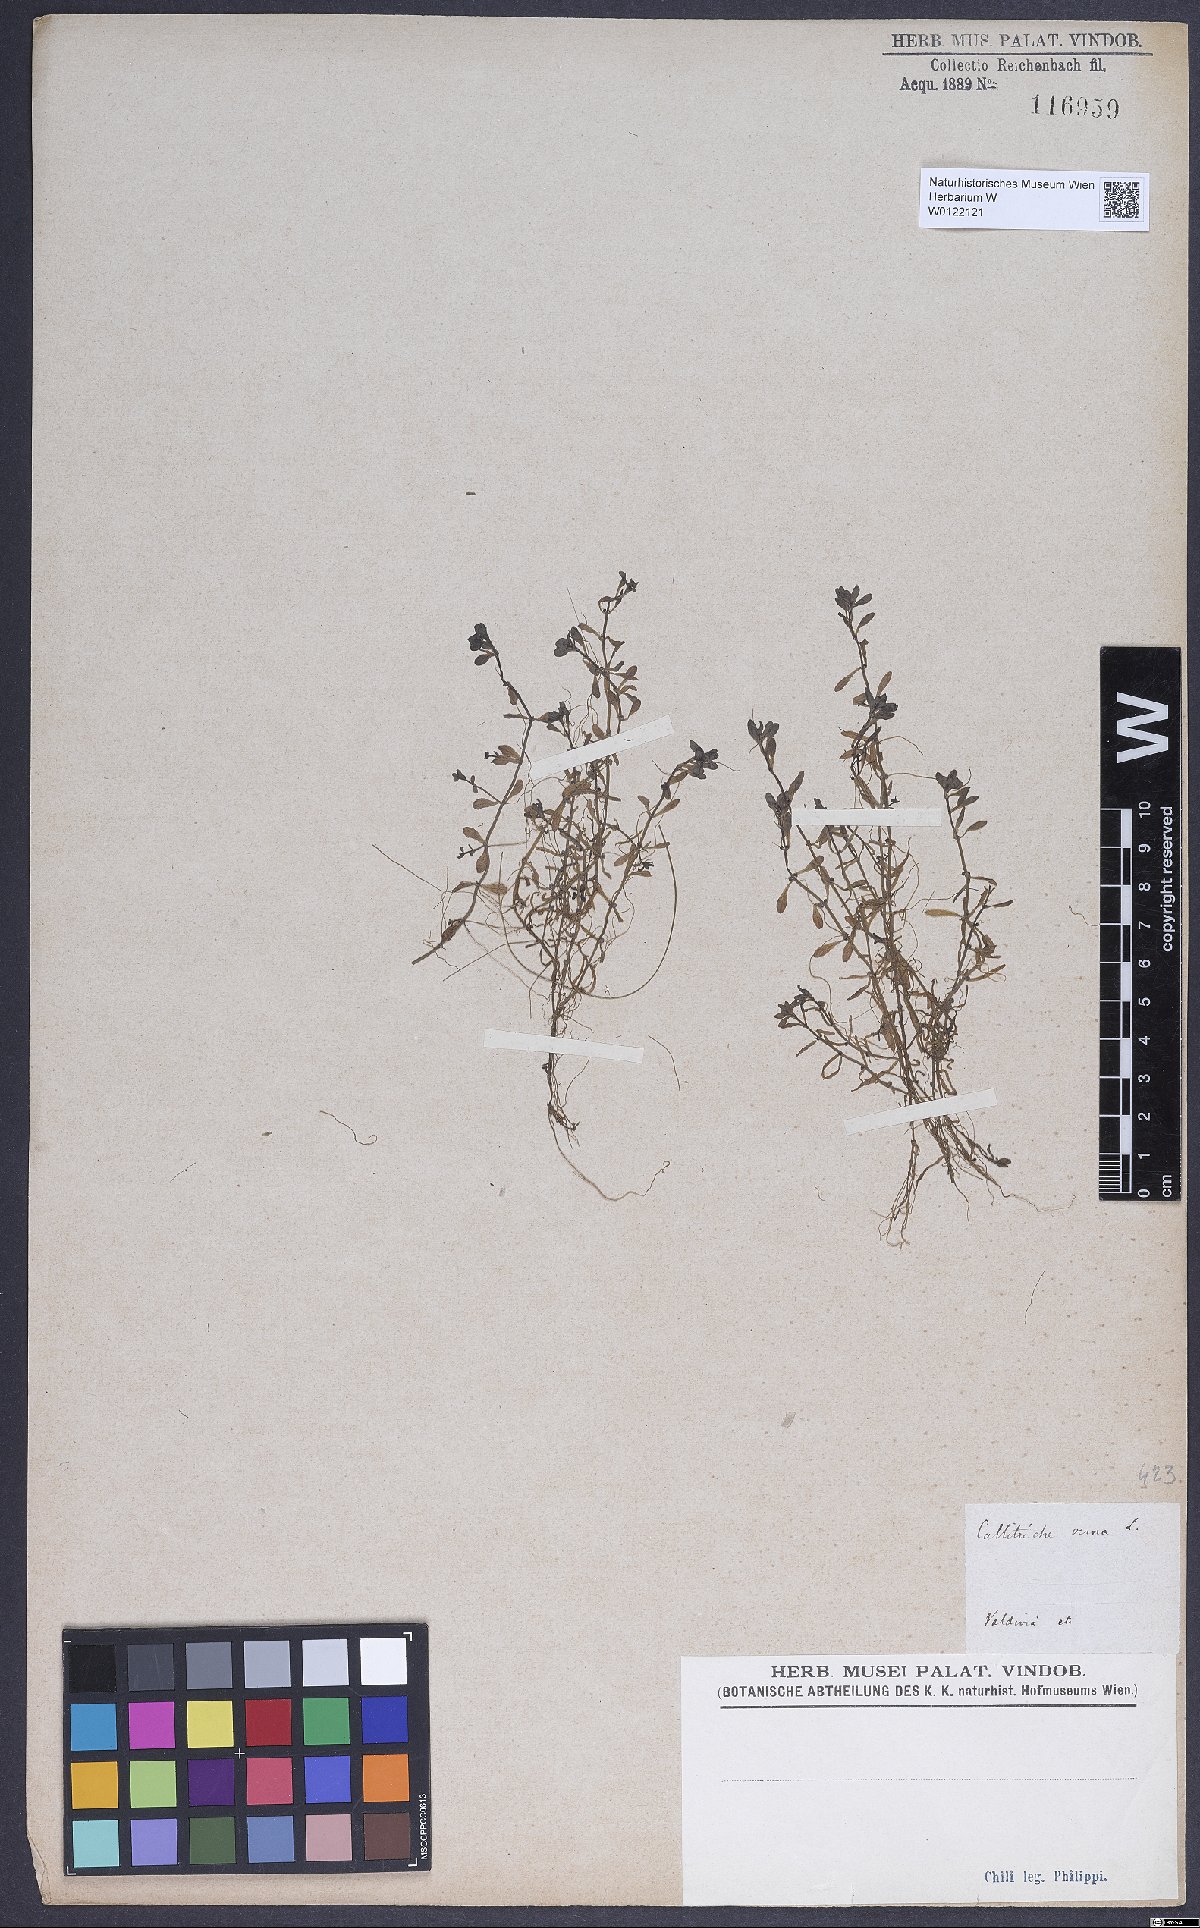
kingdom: Plantae
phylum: Tracheophyta
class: Magnoliopsida
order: Lamiales
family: Plantaginaceae
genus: Callitriche
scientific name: Callitriche obtusangula
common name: Blunt-fruited water-starwort
